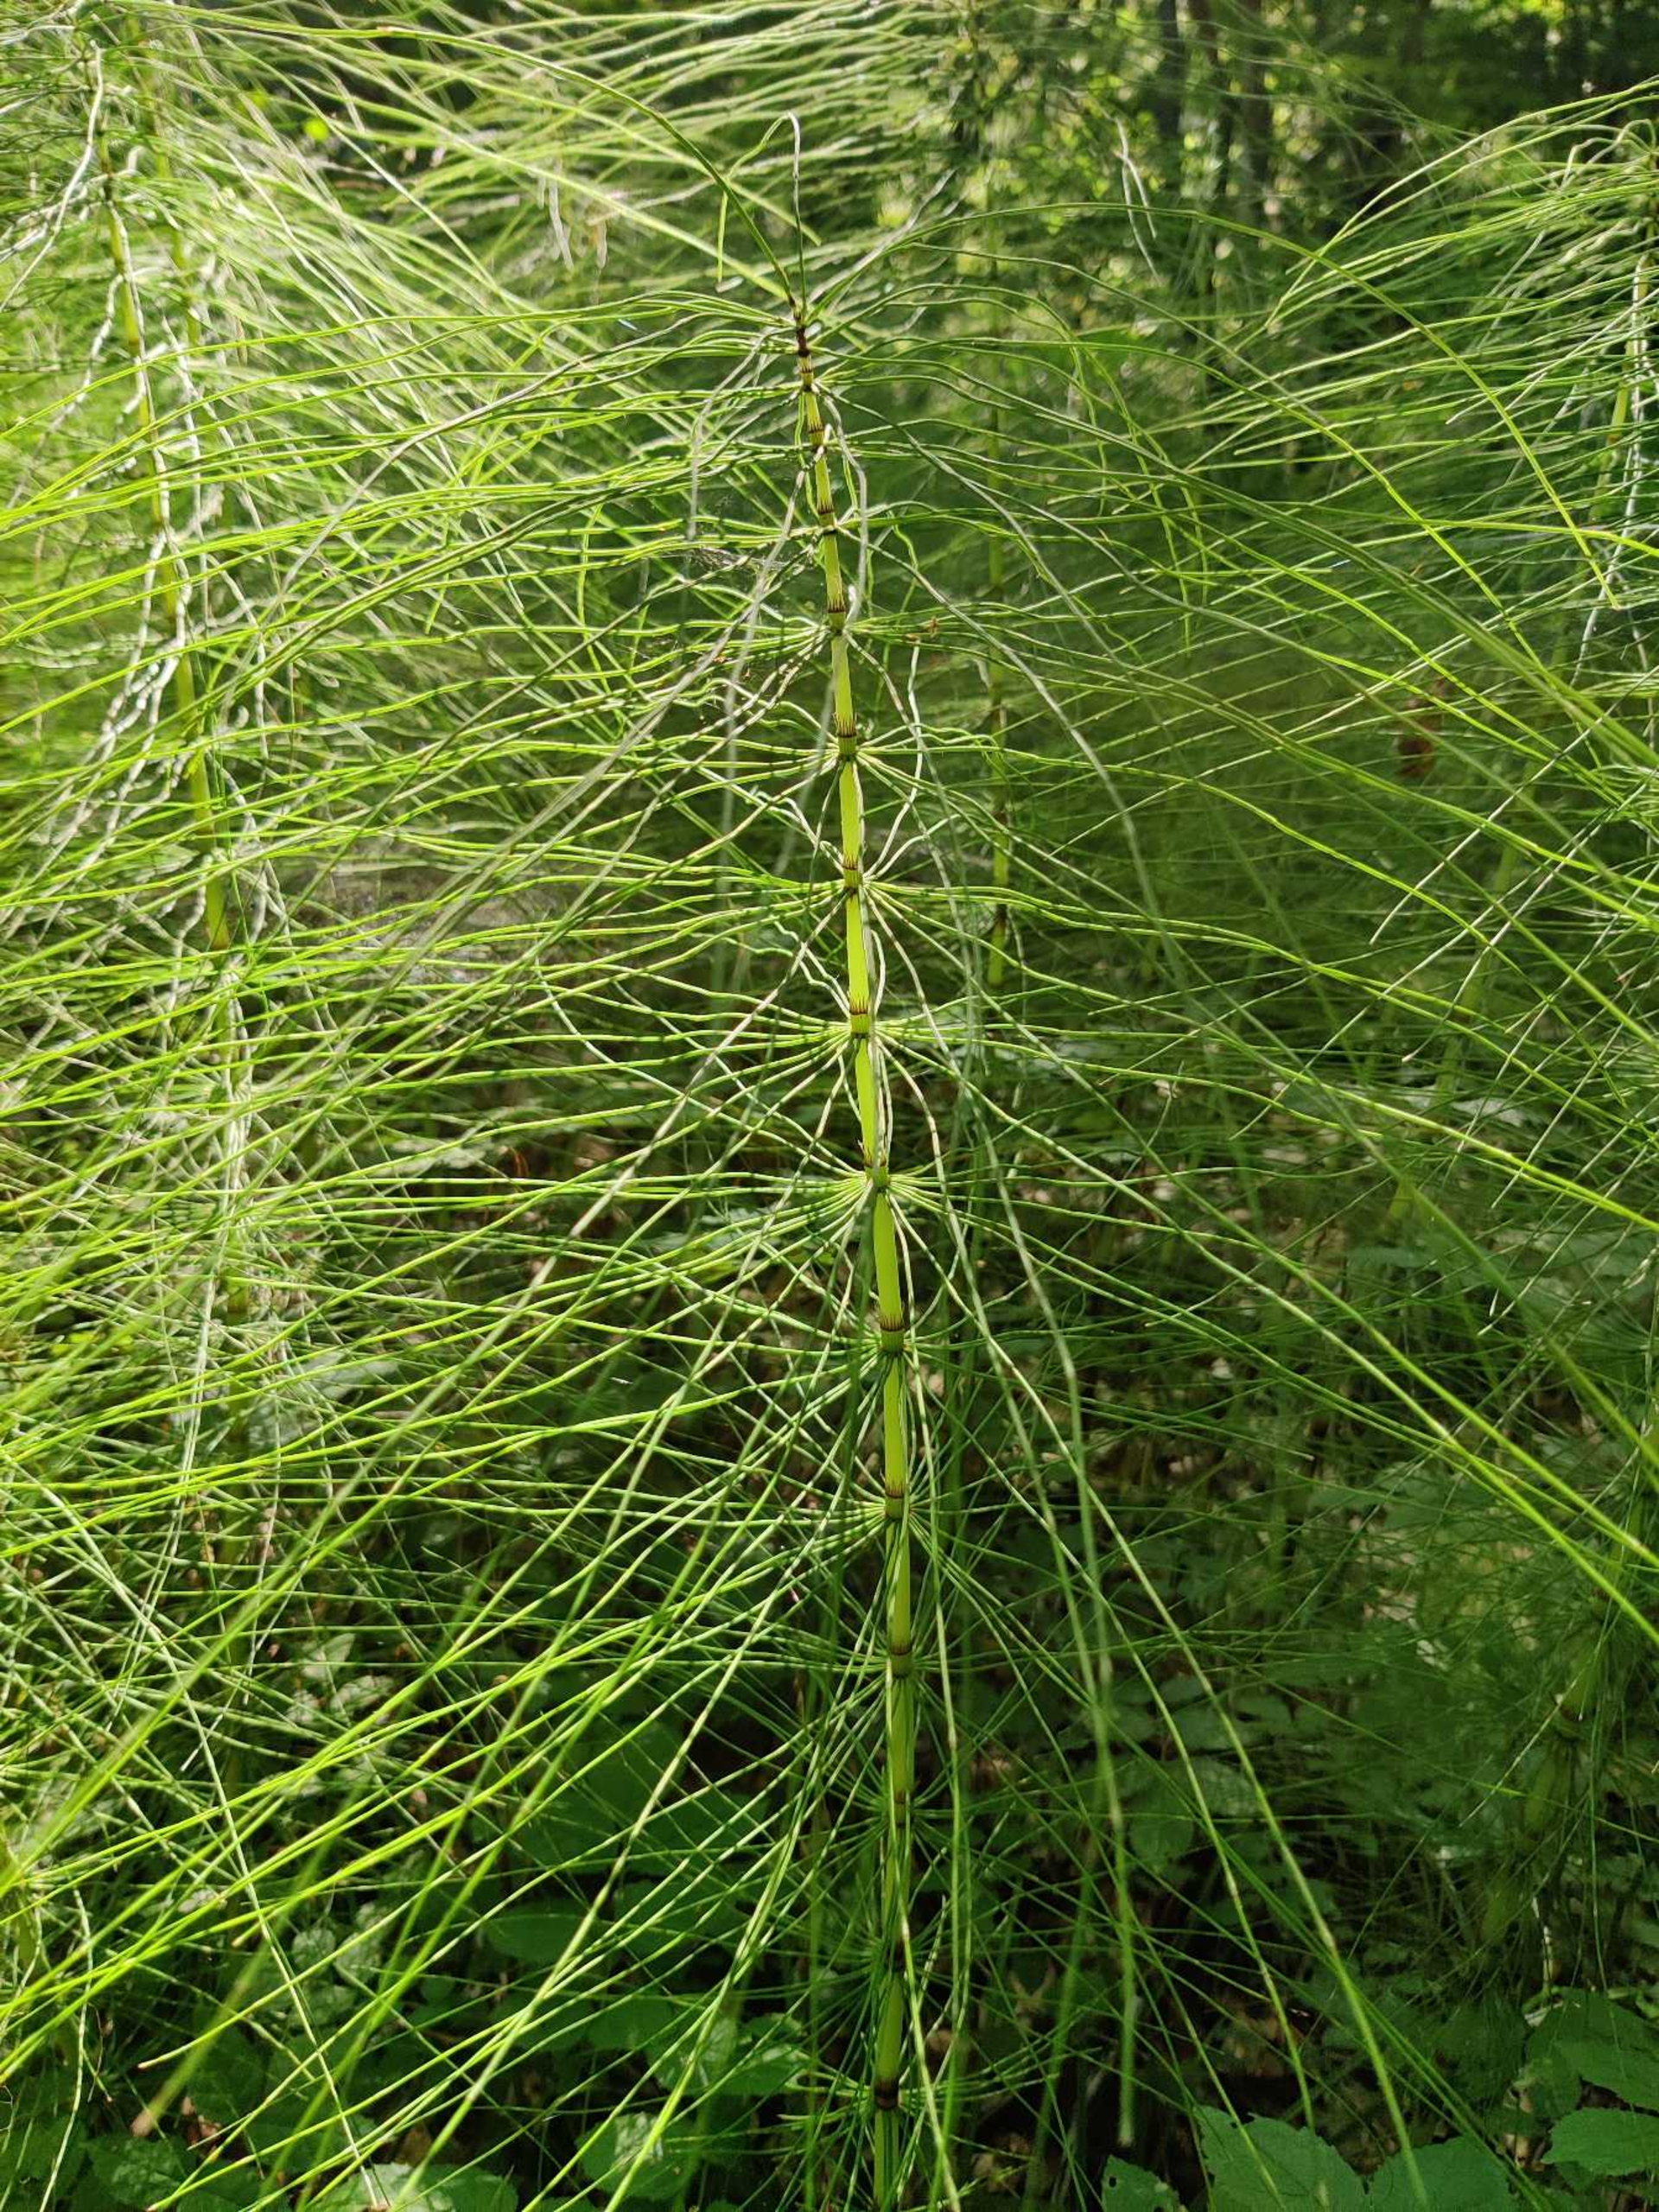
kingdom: Plantae
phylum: Tracheophyta
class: Polypodiopsida
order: Equisetales
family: Equisetaceae
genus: Equisetum
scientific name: Equisetum telmateia
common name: Elfenbens-padderok
